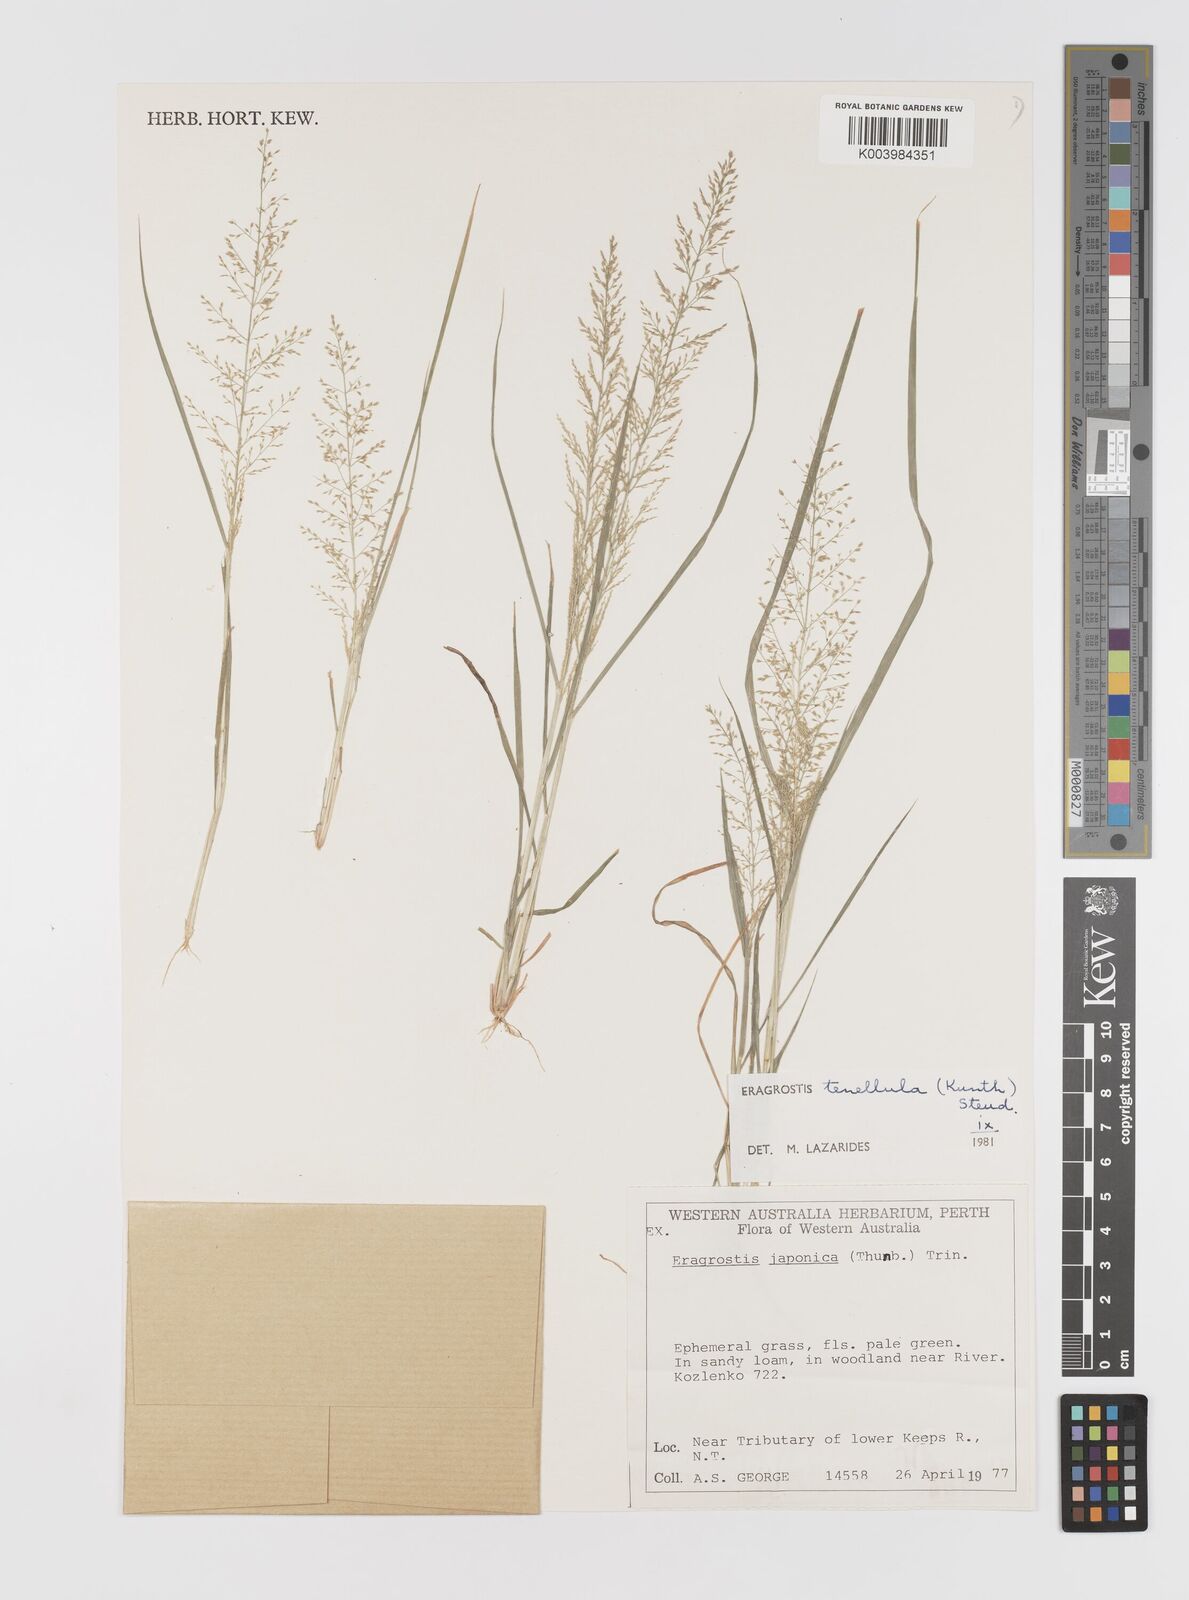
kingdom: Plantae
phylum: Tracheophyta
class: Liliopsida
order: Poales
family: Poaceae
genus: Eragrostis
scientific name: Eragrostis tenellula
